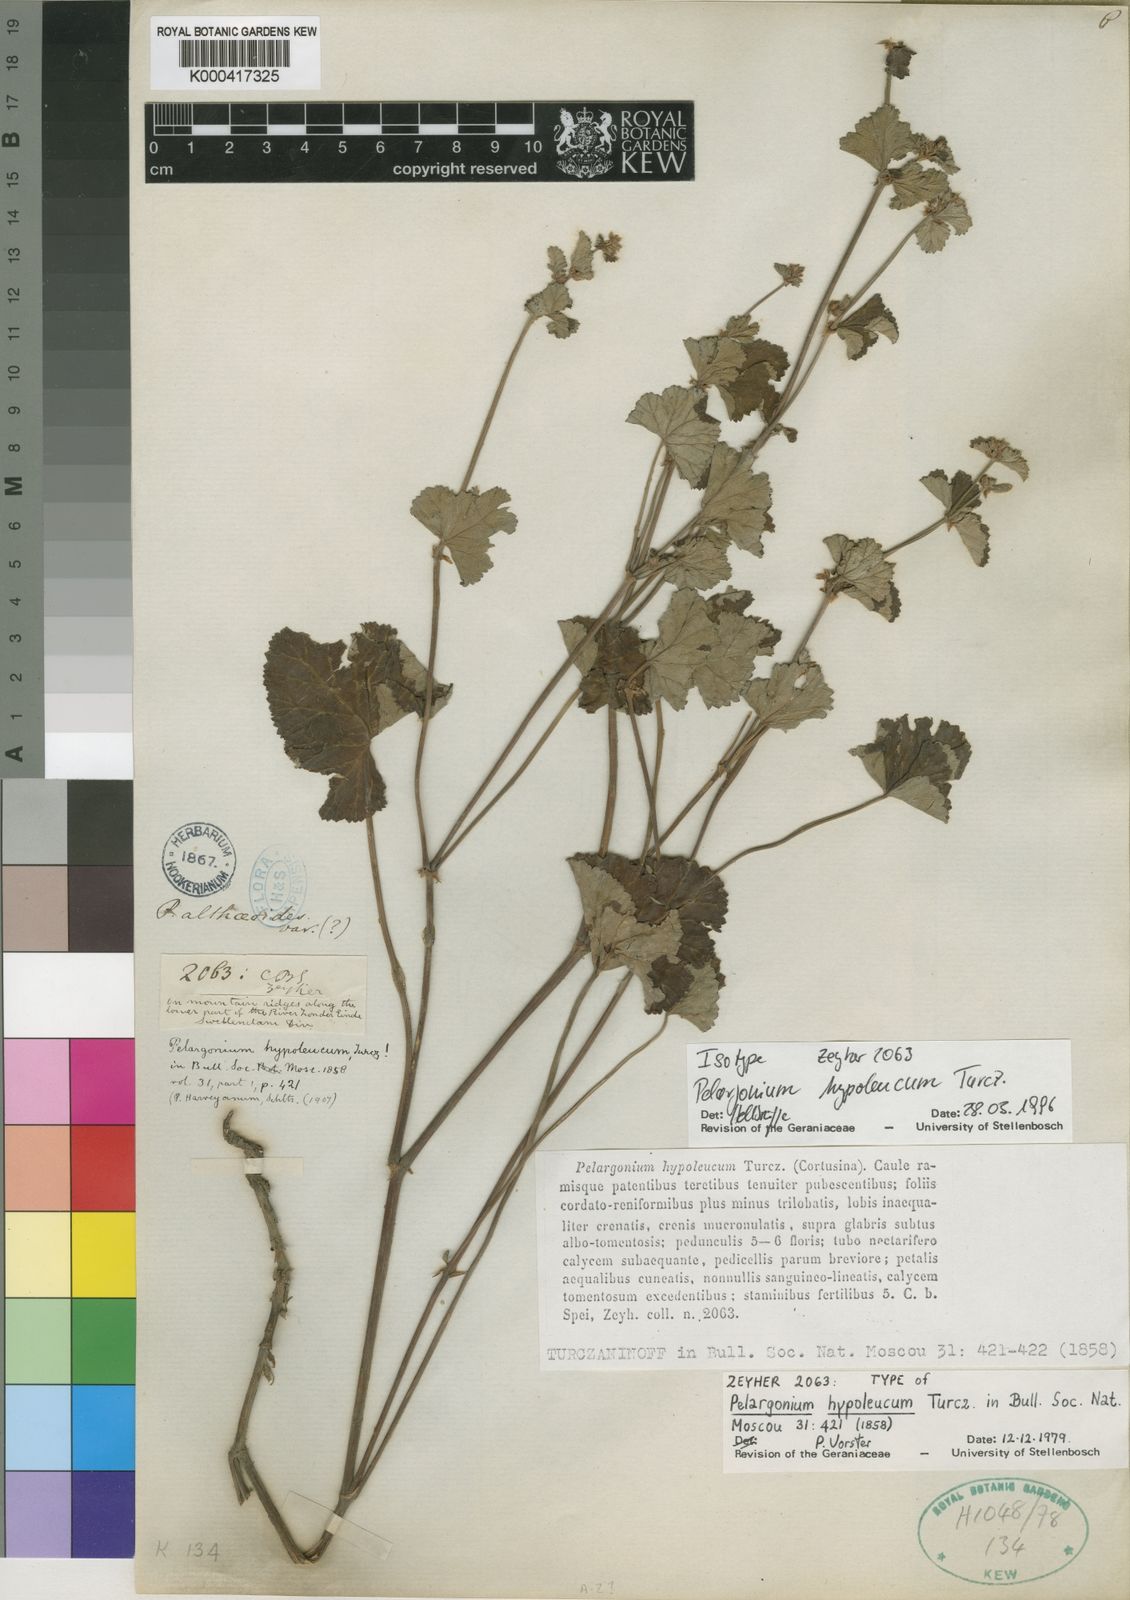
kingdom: Plantae
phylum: Tracheophyta
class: Magnoliopsida
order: Geraniales
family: Geraniaceae
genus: Pelargonium
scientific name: Pelargonium hypoleucum
